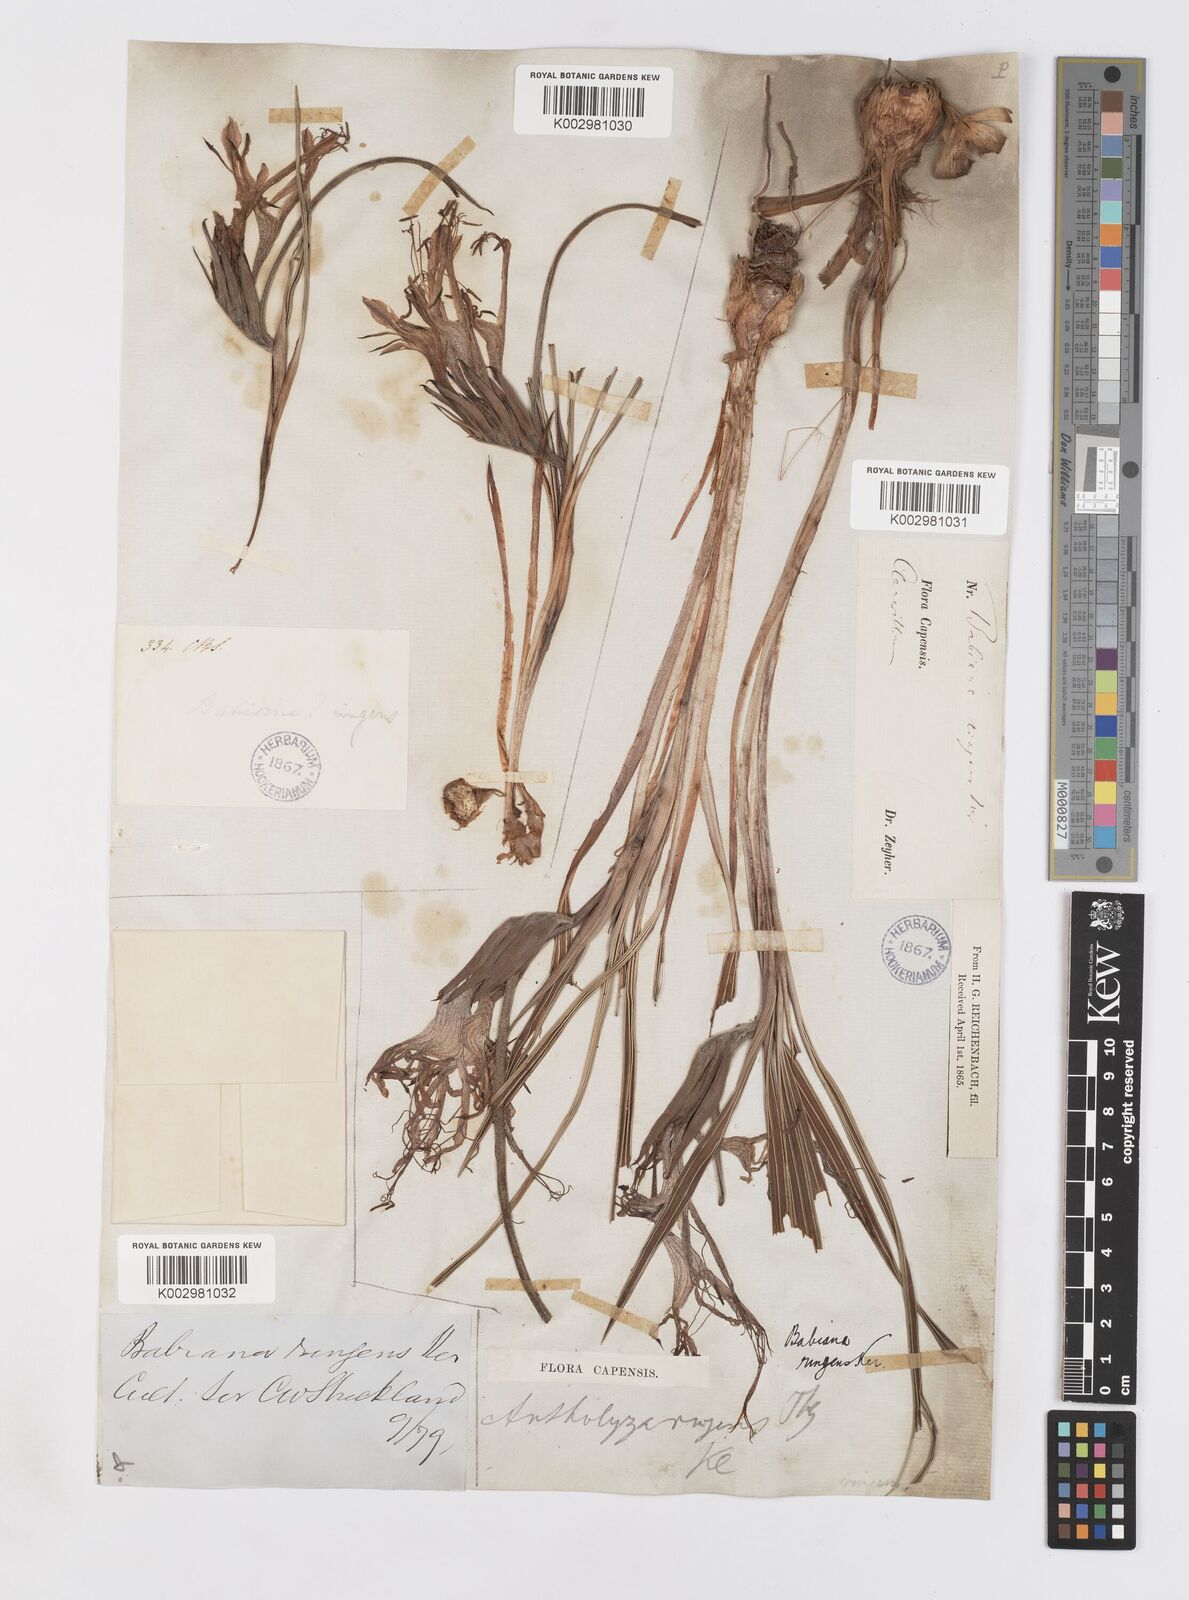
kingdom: Plantae
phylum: Tracheophyta
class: Liliopsida
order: Asparagales
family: Iridaceae
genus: Babiana
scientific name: Babiana ringens
